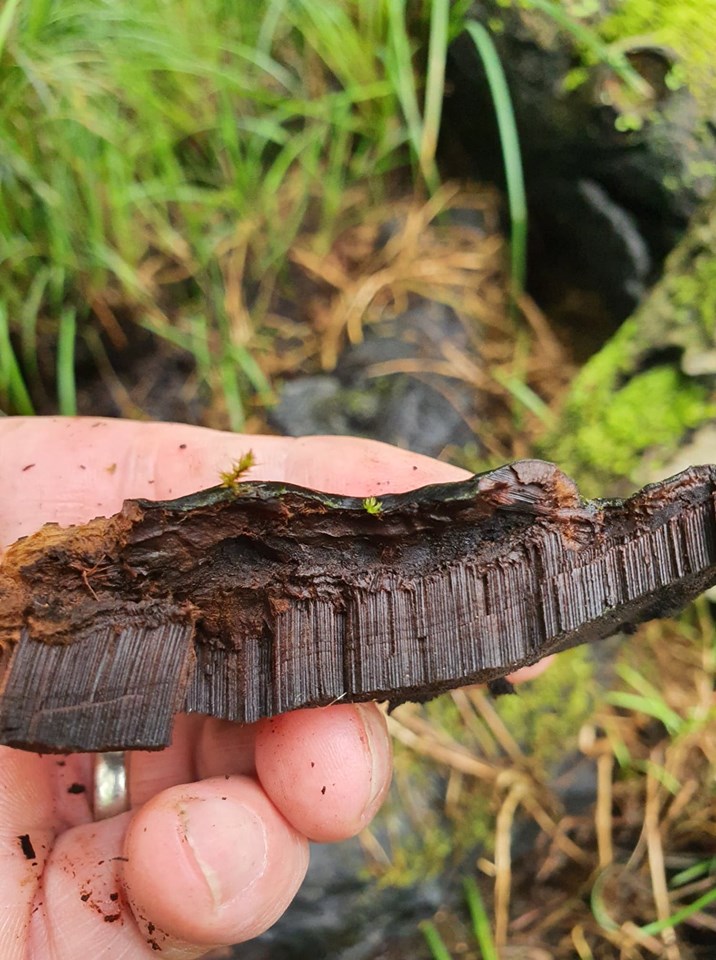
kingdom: Fungi
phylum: Basidiomycota
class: Agaricomycetes
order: Polyporales
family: Polyporaceae
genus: Ganoderma
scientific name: Ganoderma applanatum
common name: flad lakporesvamp
